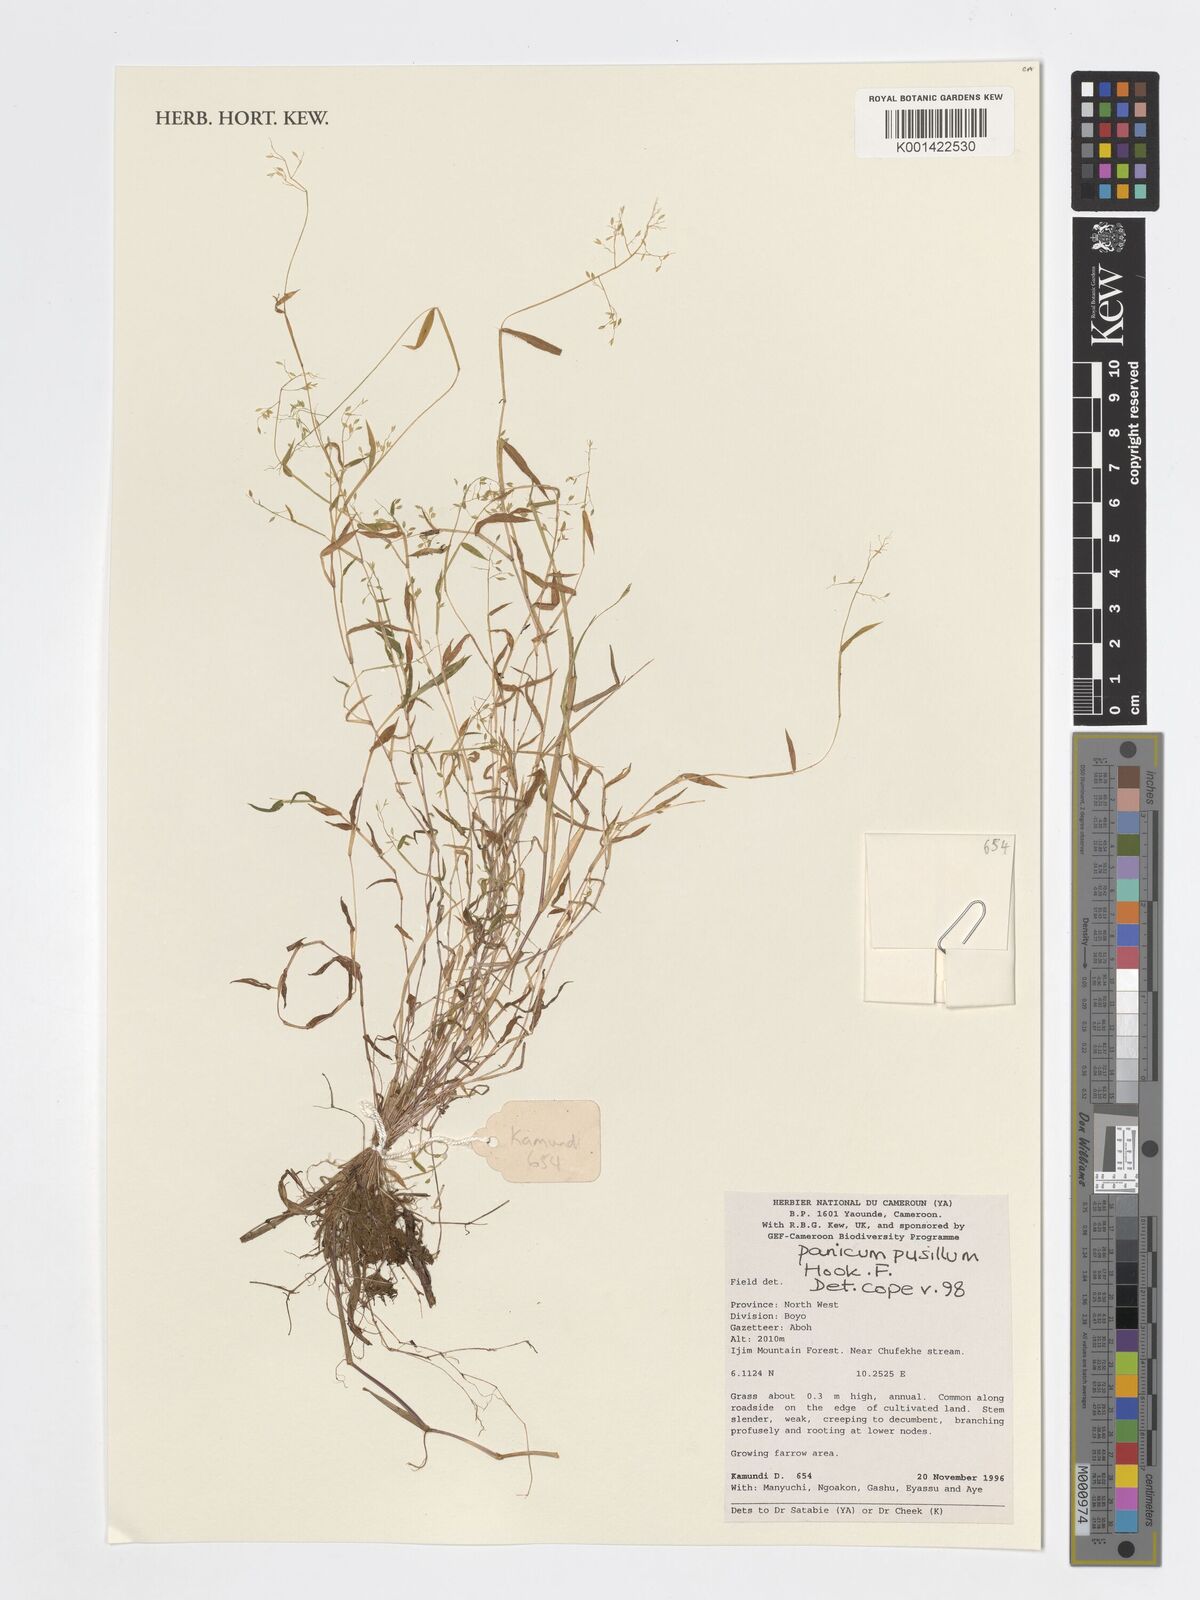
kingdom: Plantae
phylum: Tracheophyta
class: Liliopsida
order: Poales
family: Poaceae
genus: Panicum
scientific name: Panicum pusillum
